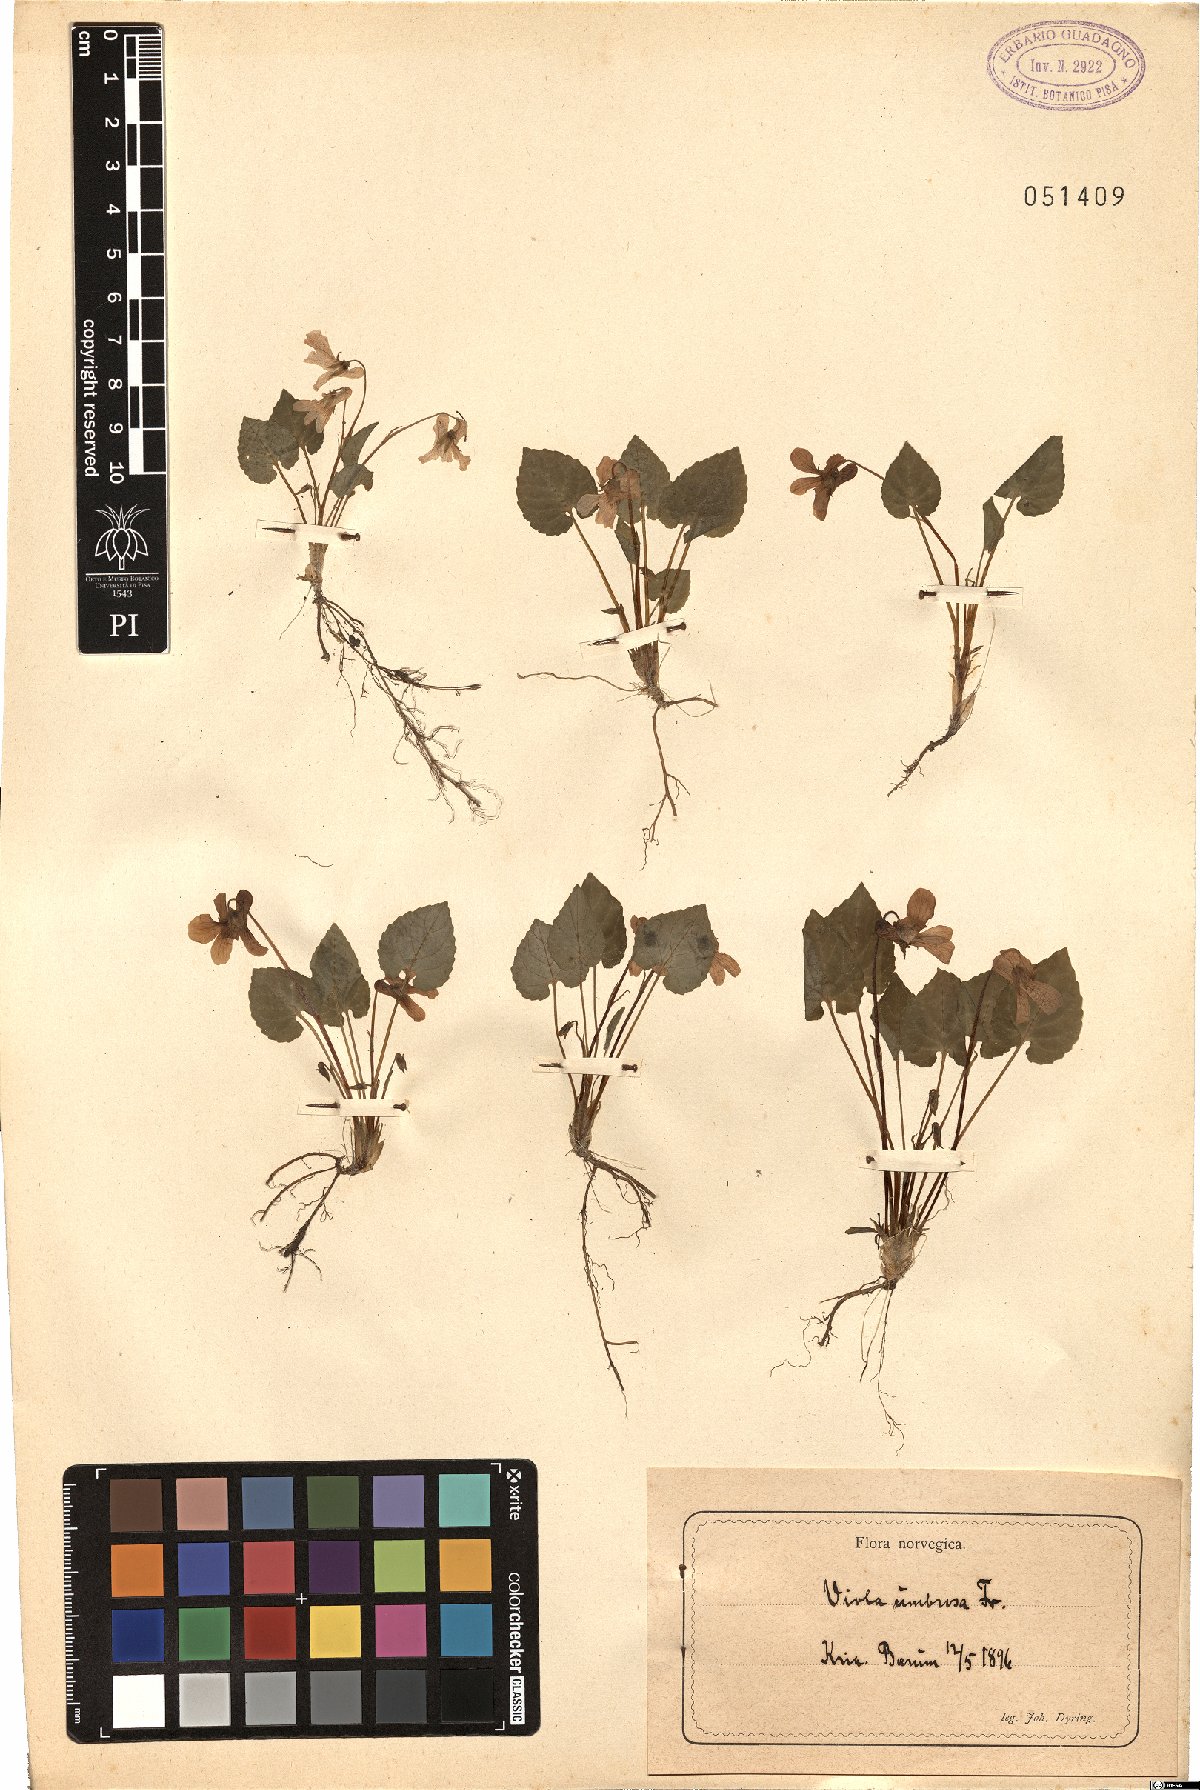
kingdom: Plantae
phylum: Tracheophyta
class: Magnoliopsida
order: Malpighiales
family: Violaceae
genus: Viola
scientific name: Viola valesiaca
